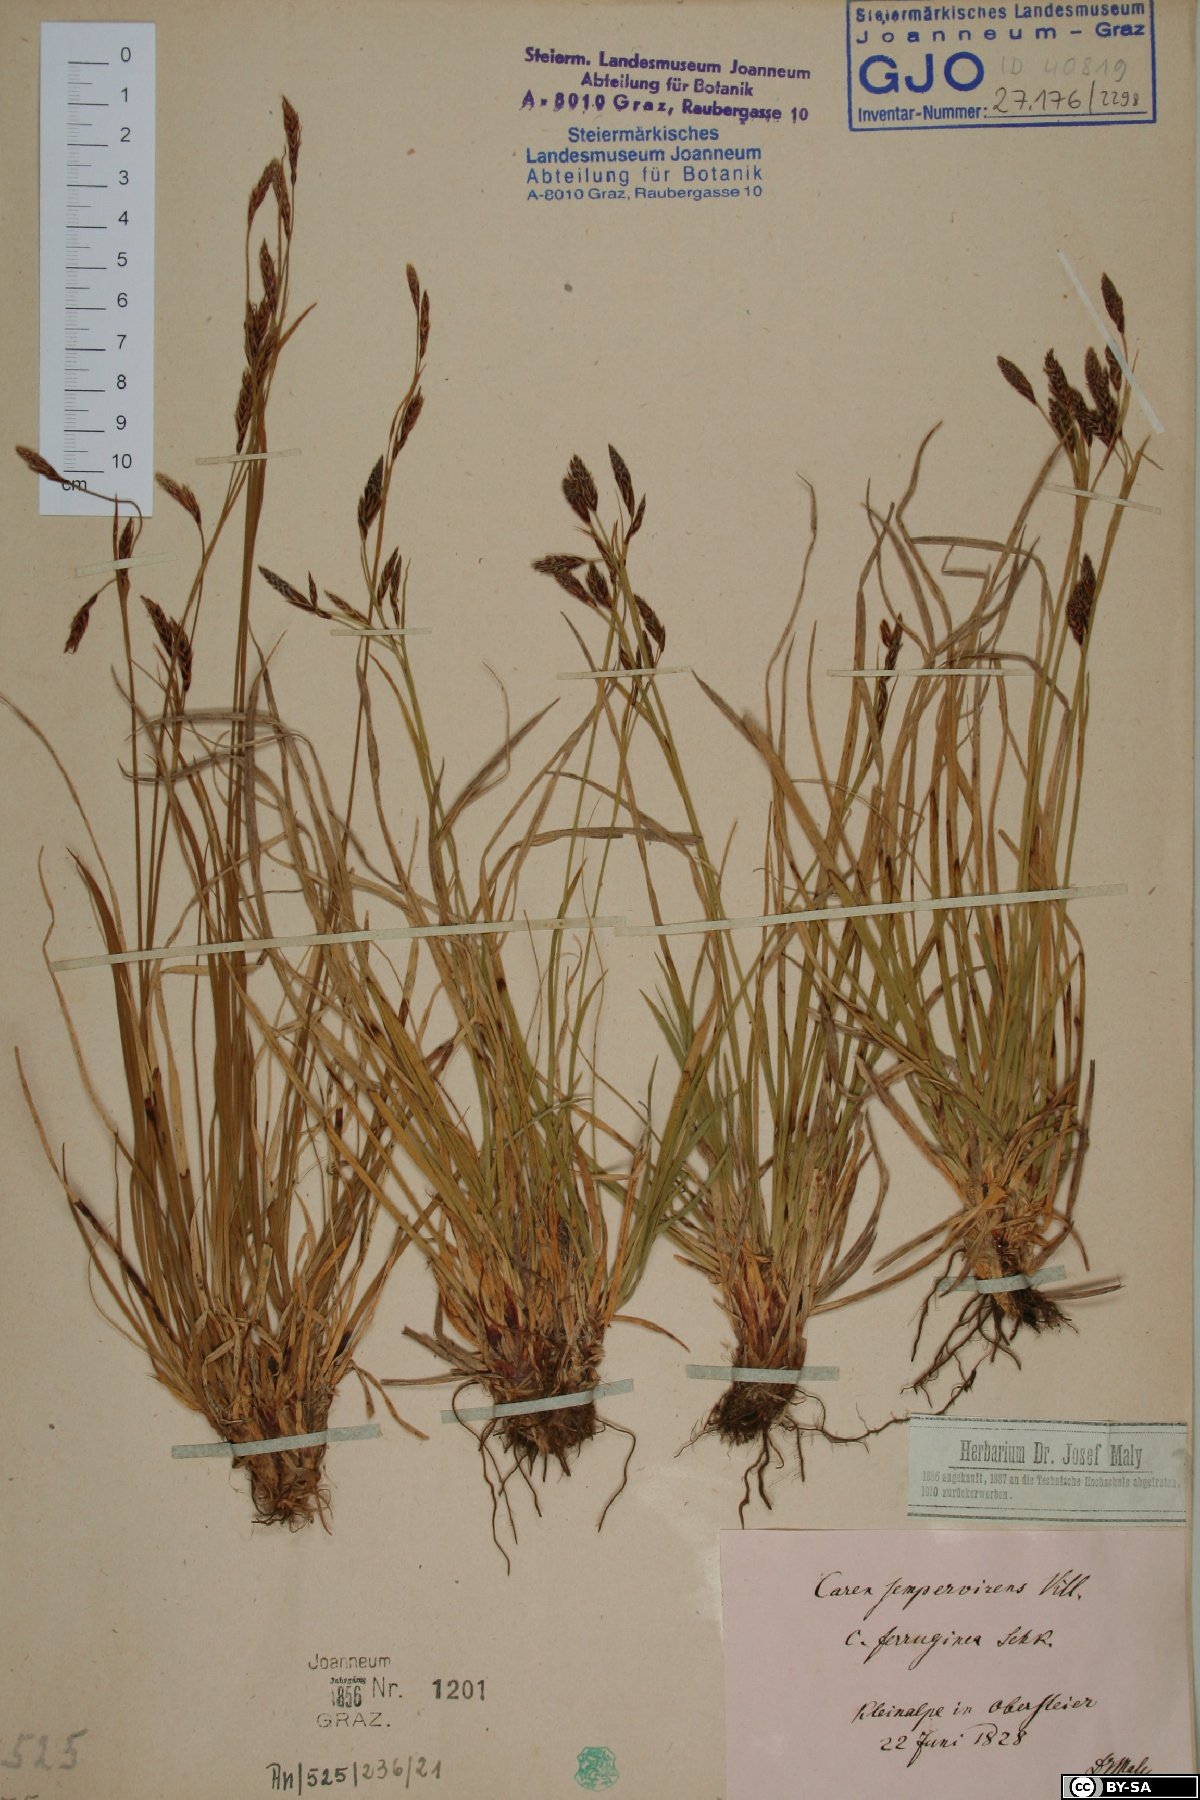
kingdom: Plantae
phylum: Tracheophyta
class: Liliopsida
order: Poales
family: Cyperaceae
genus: Carex
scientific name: Carex sempervirens
